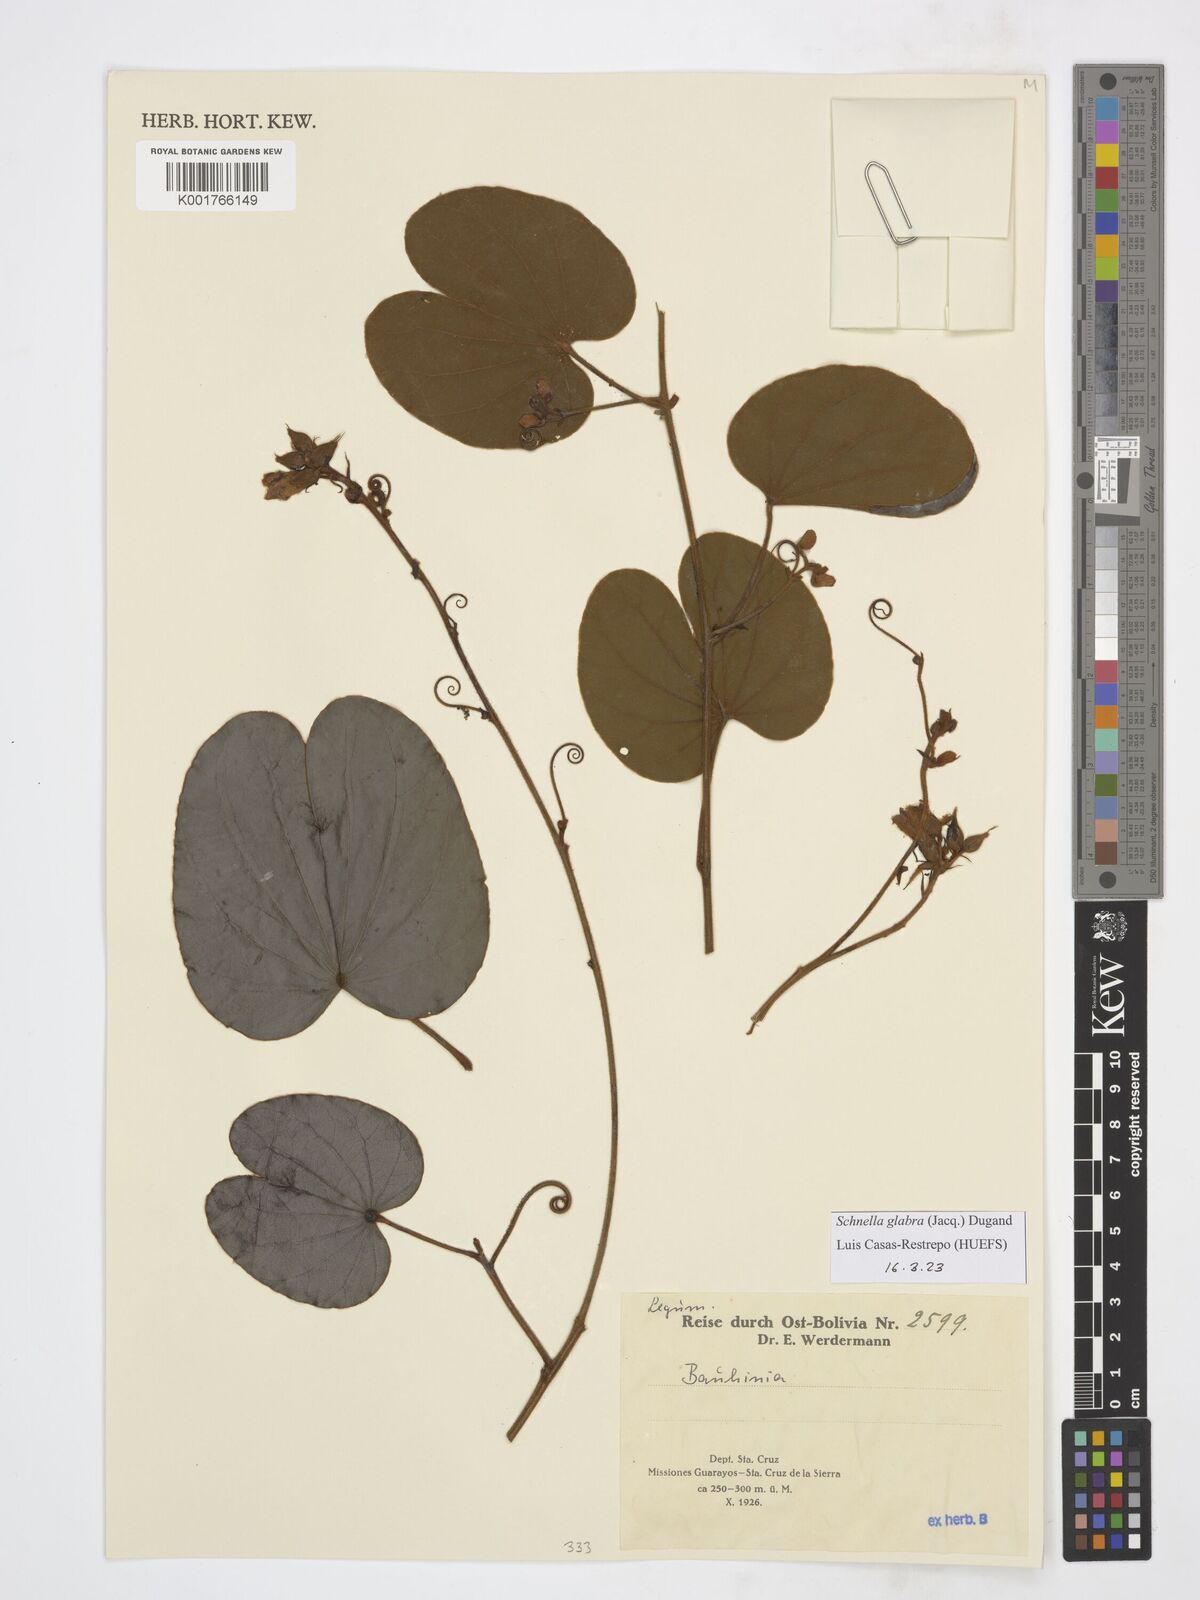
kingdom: Plantae
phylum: Tracheophyta
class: Magnoliopsida
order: Fabales
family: Fabaceae
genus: Schnella
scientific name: Schnella glabra
